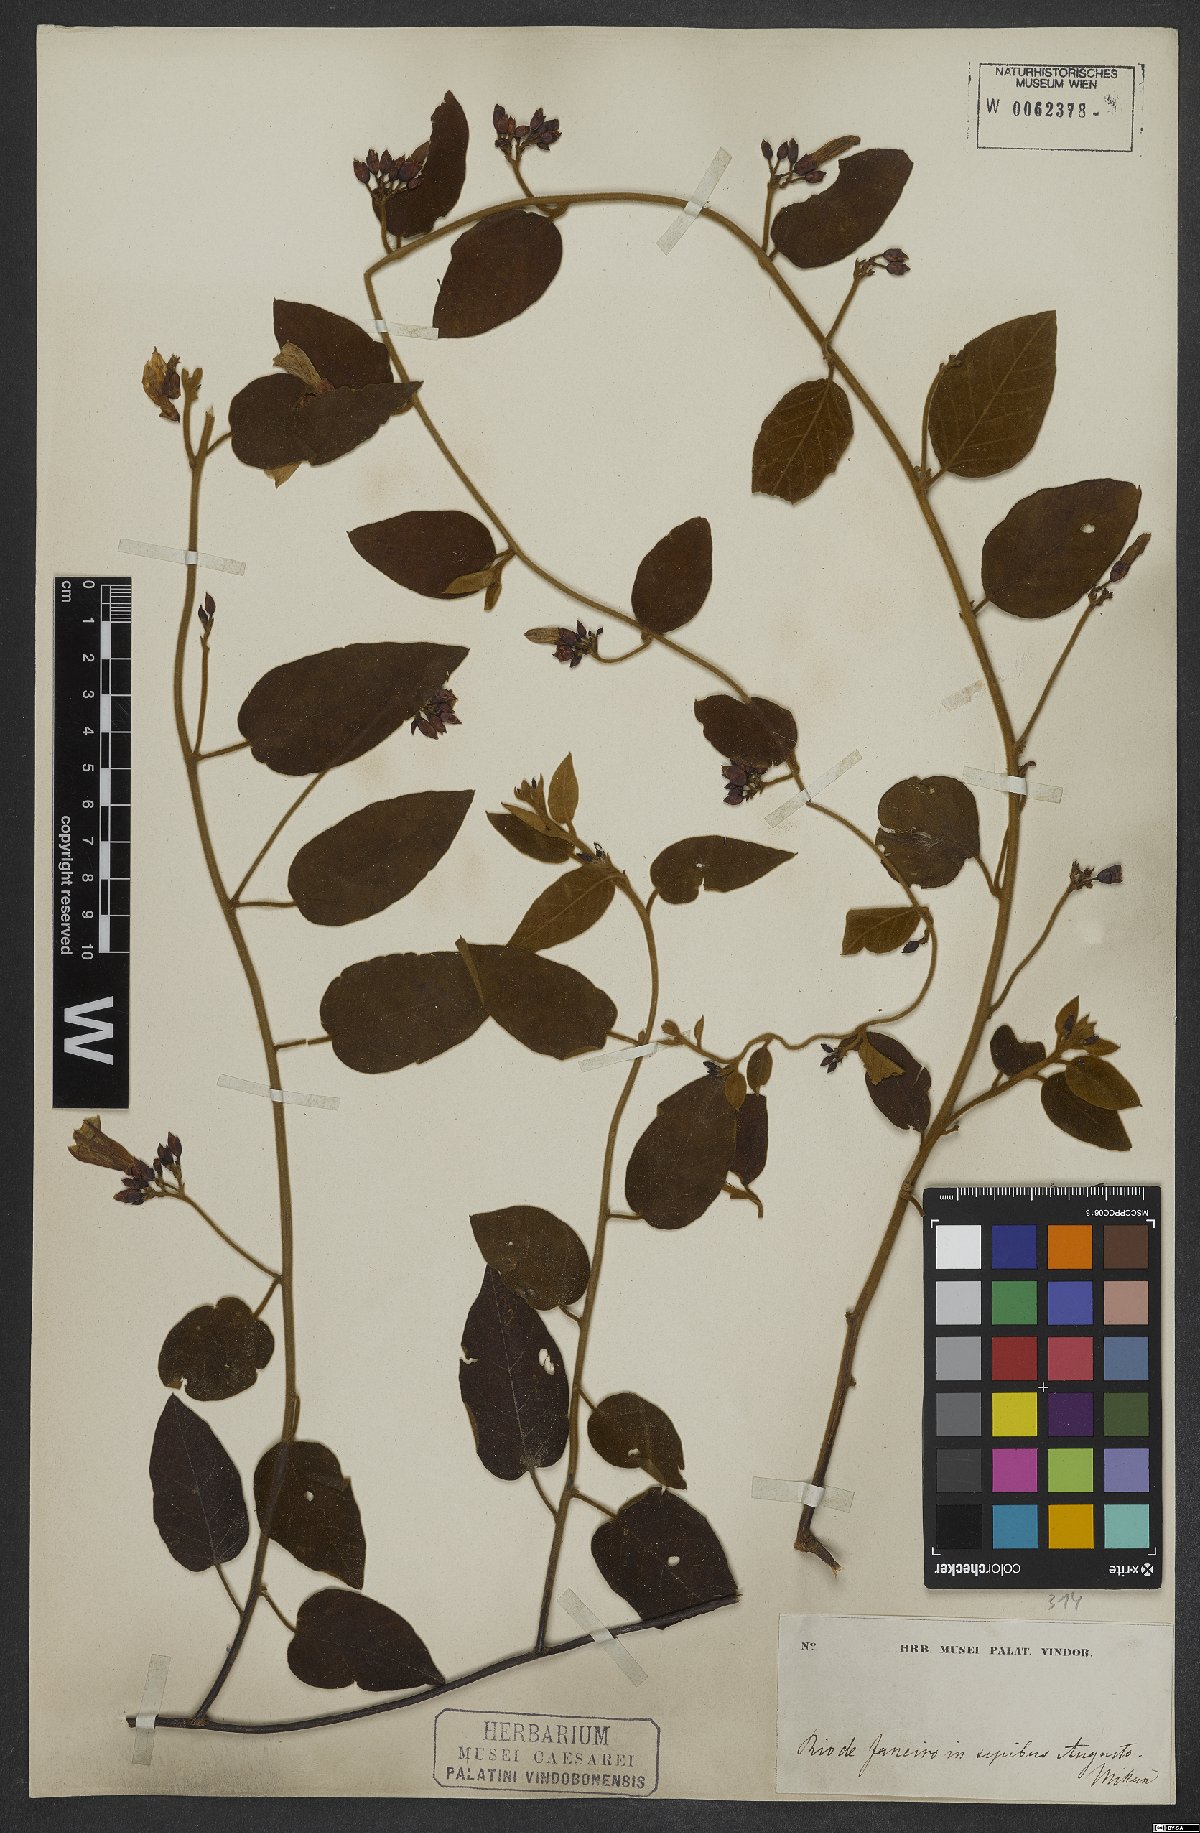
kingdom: Plantae
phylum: Tracheophyta
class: Magnoliopsida
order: Solanales
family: Convolvulaceae
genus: Jacquemontia
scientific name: Jacquemontia holosericea
